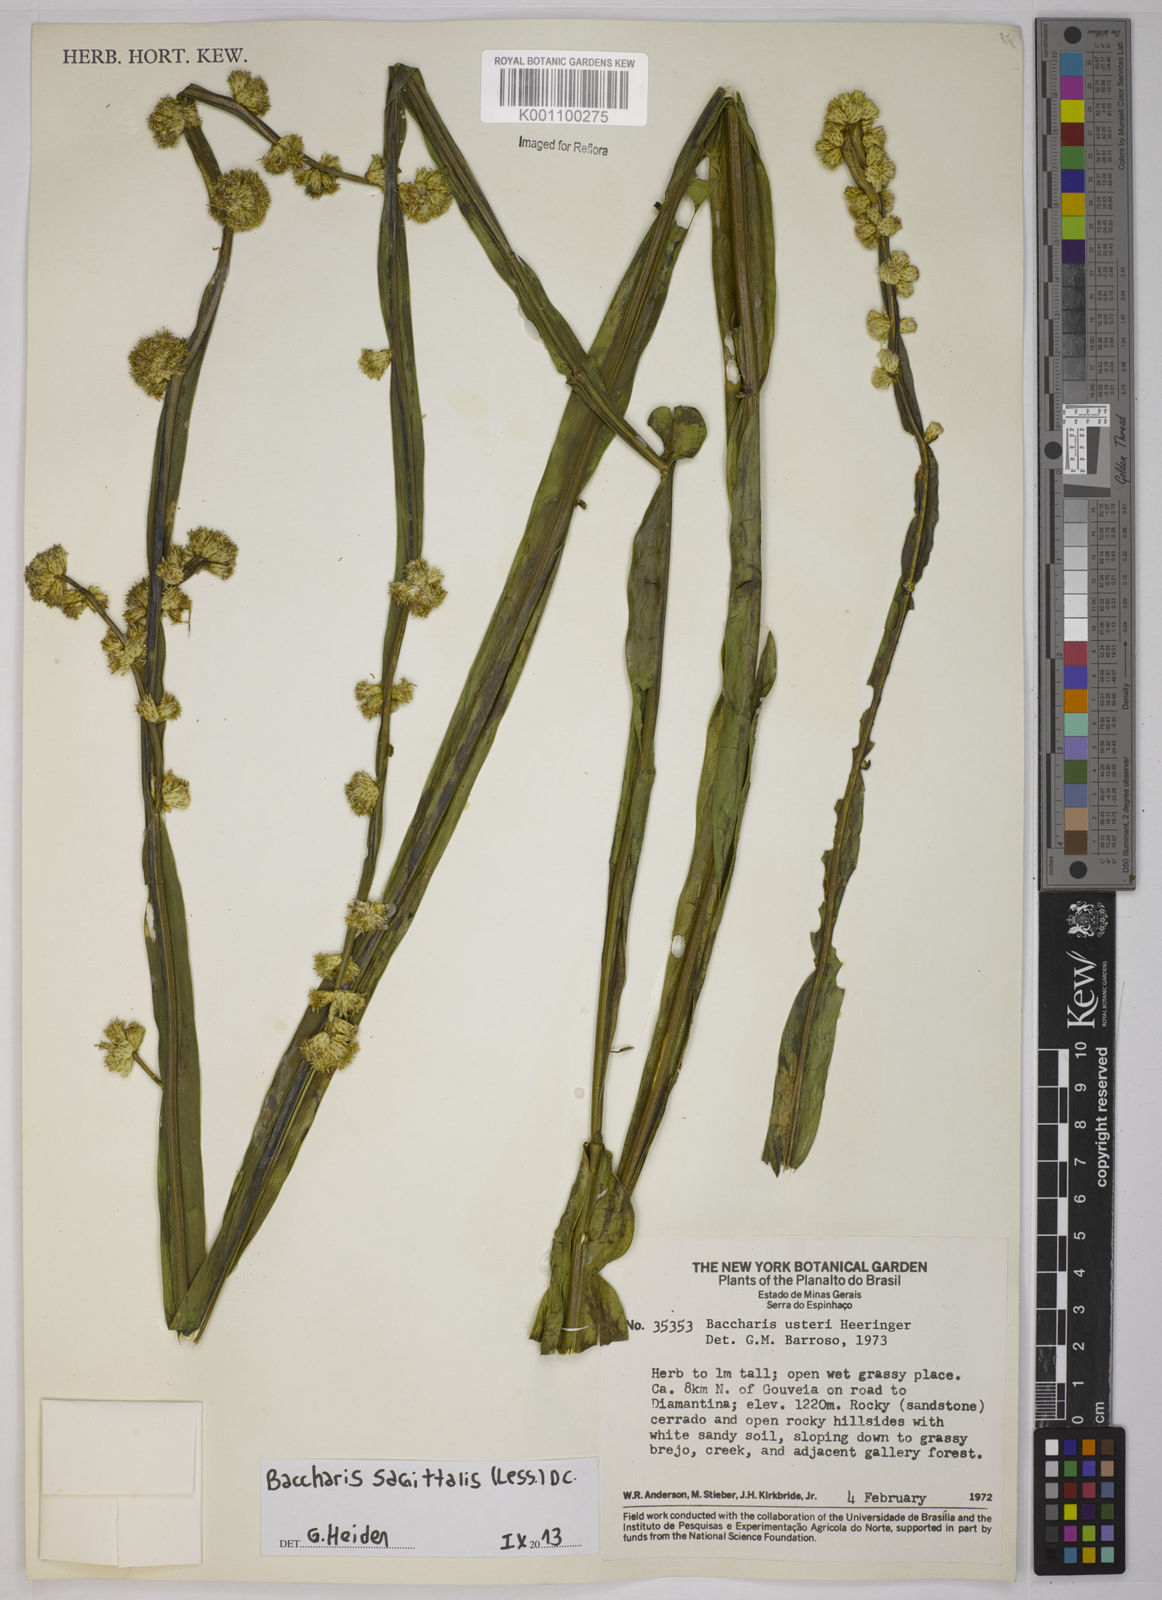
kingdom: Plantae
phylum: Tracheophyta
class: Magnoliopsida
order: Asterales
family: Asteraceae
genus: Baccharis
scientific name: Baccharis sagittalis
